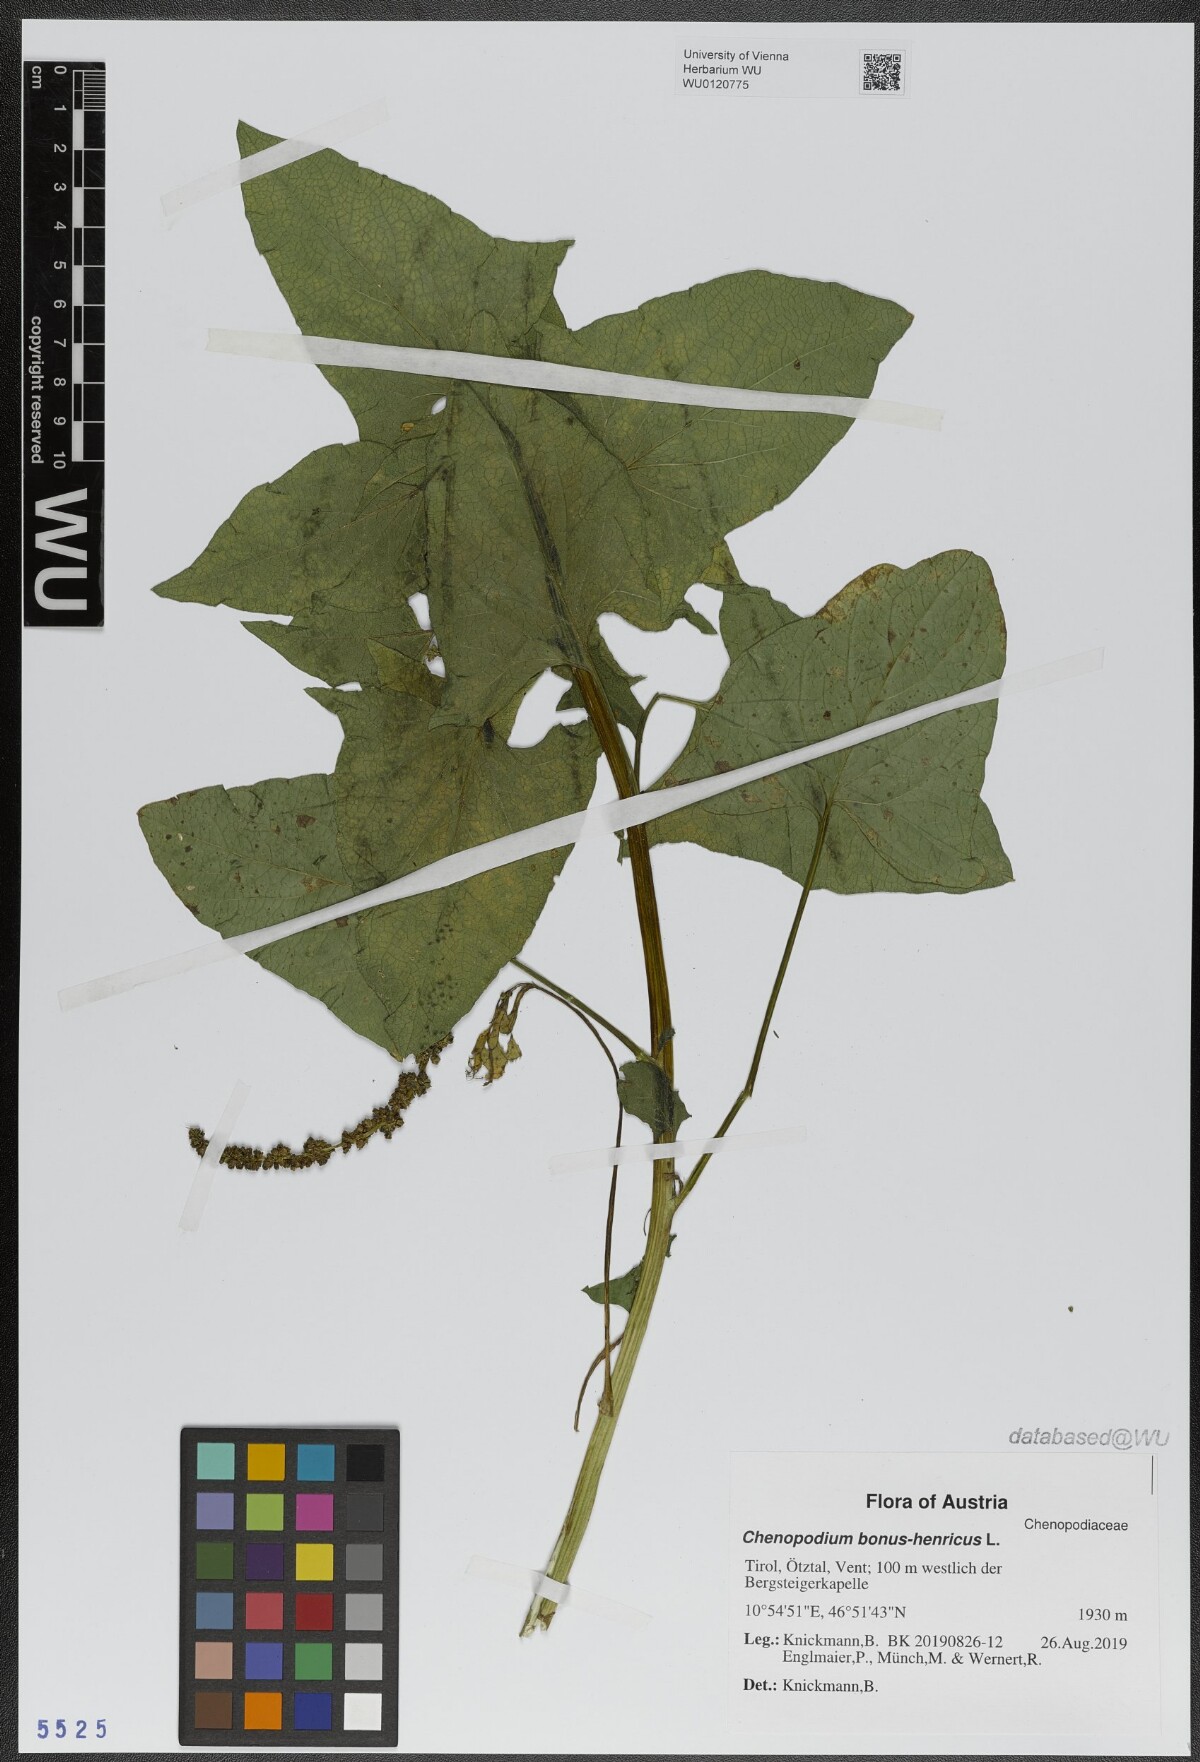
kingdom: Plantae
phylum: Tracheophyta
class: Magnoliopsida
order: Caryophyllales
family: Amaranthaceae
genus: Blitum
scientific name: Blitum bonus-henricus
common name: Good king henry
